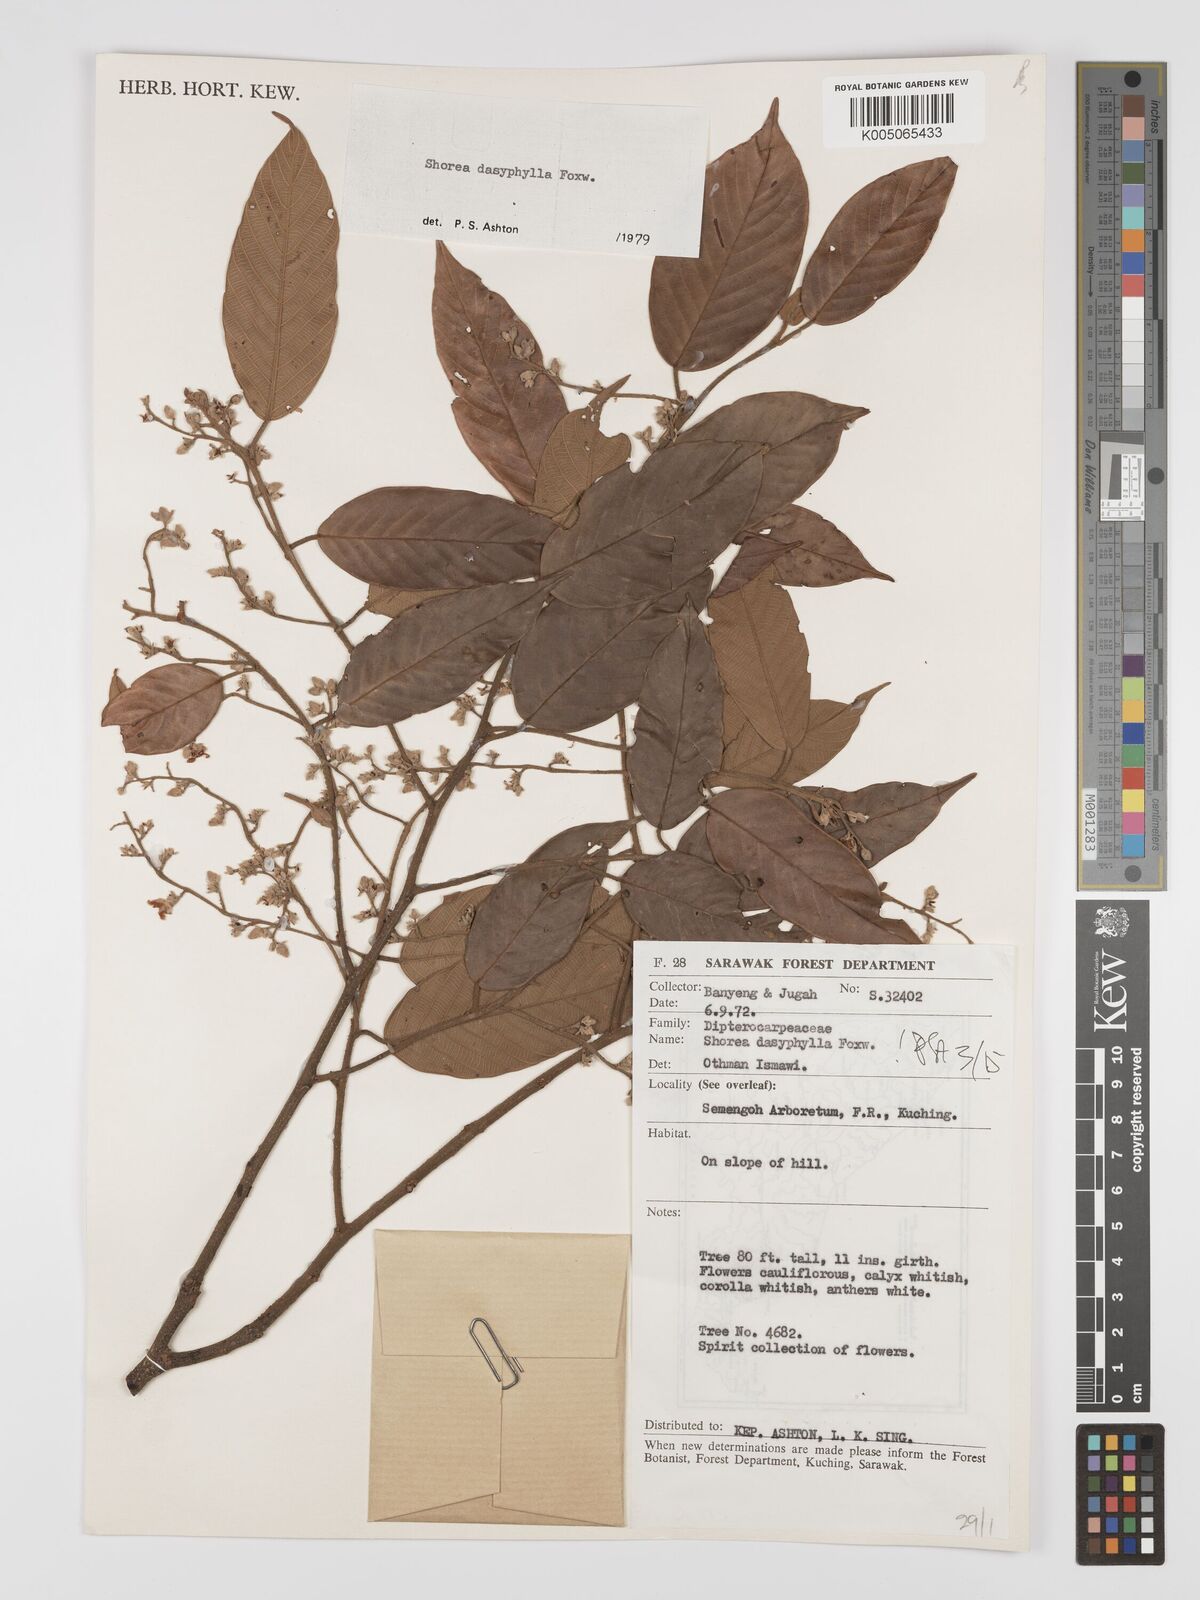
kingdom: Plantae
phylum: Tracheophyta
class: Magnoliopsida
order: Malvales
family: Dipterocarpaceae
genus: Shorea
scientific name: Shorea dasyphylla
